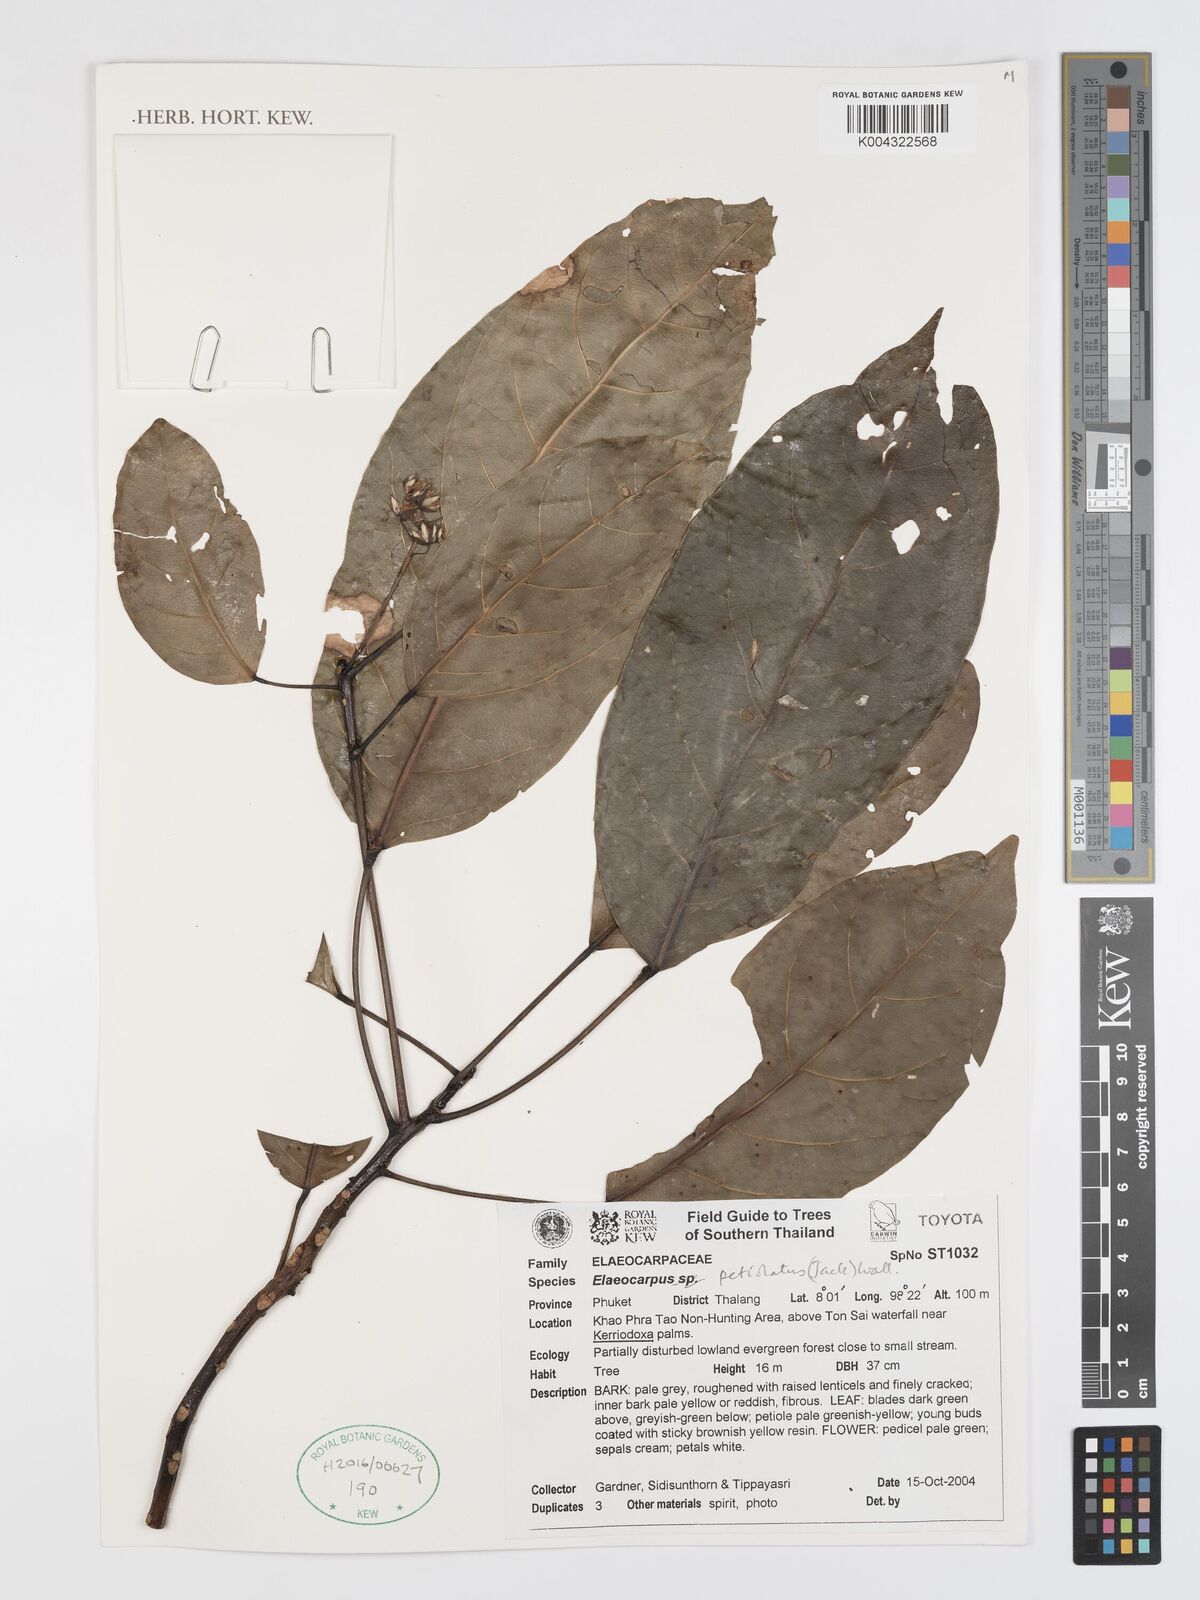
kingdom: Plantae
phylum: Tracheophyta
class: Magnoliopsida
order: Oxalidales
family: Elaeocarpaceae
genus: Elaeocarpus
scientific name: Elaeocarpus petiolatus
